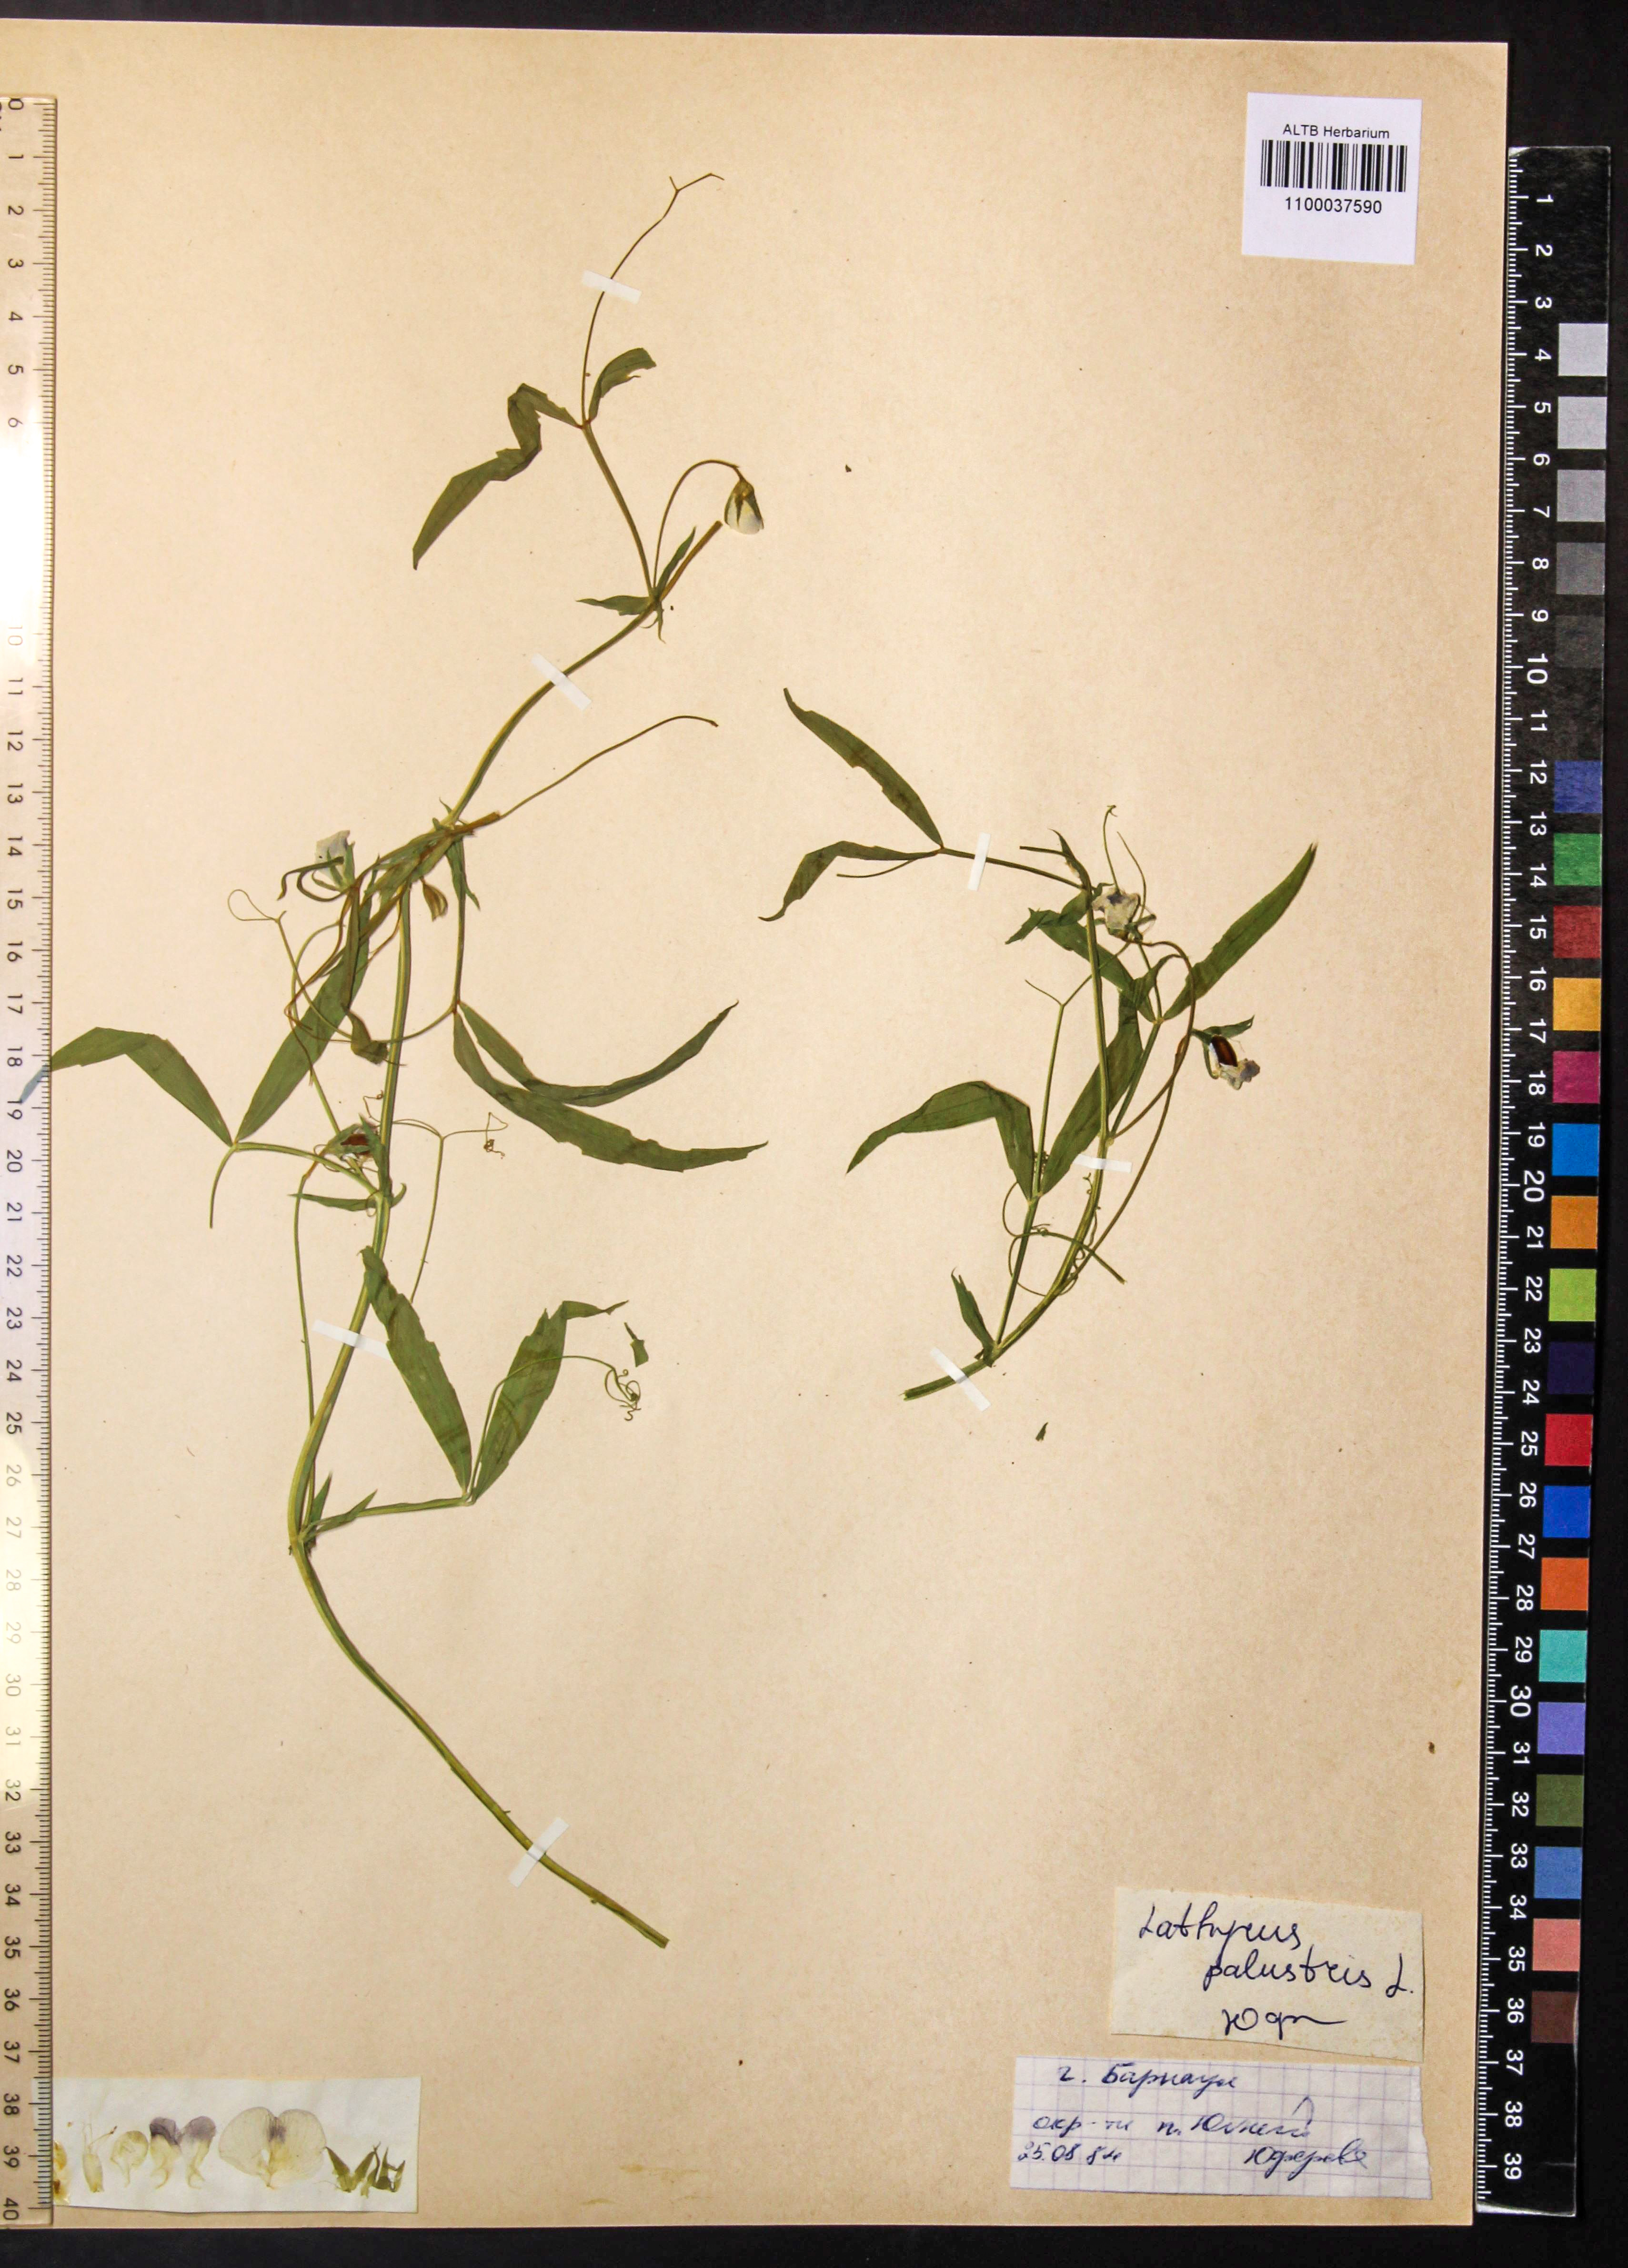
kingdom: Plantae
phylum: Tracheophyta
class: Magnoliopsida
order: Fabales
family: Fabaceae
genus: Lathyrus
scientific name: Lathyrus palustris
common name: Marsh pea
